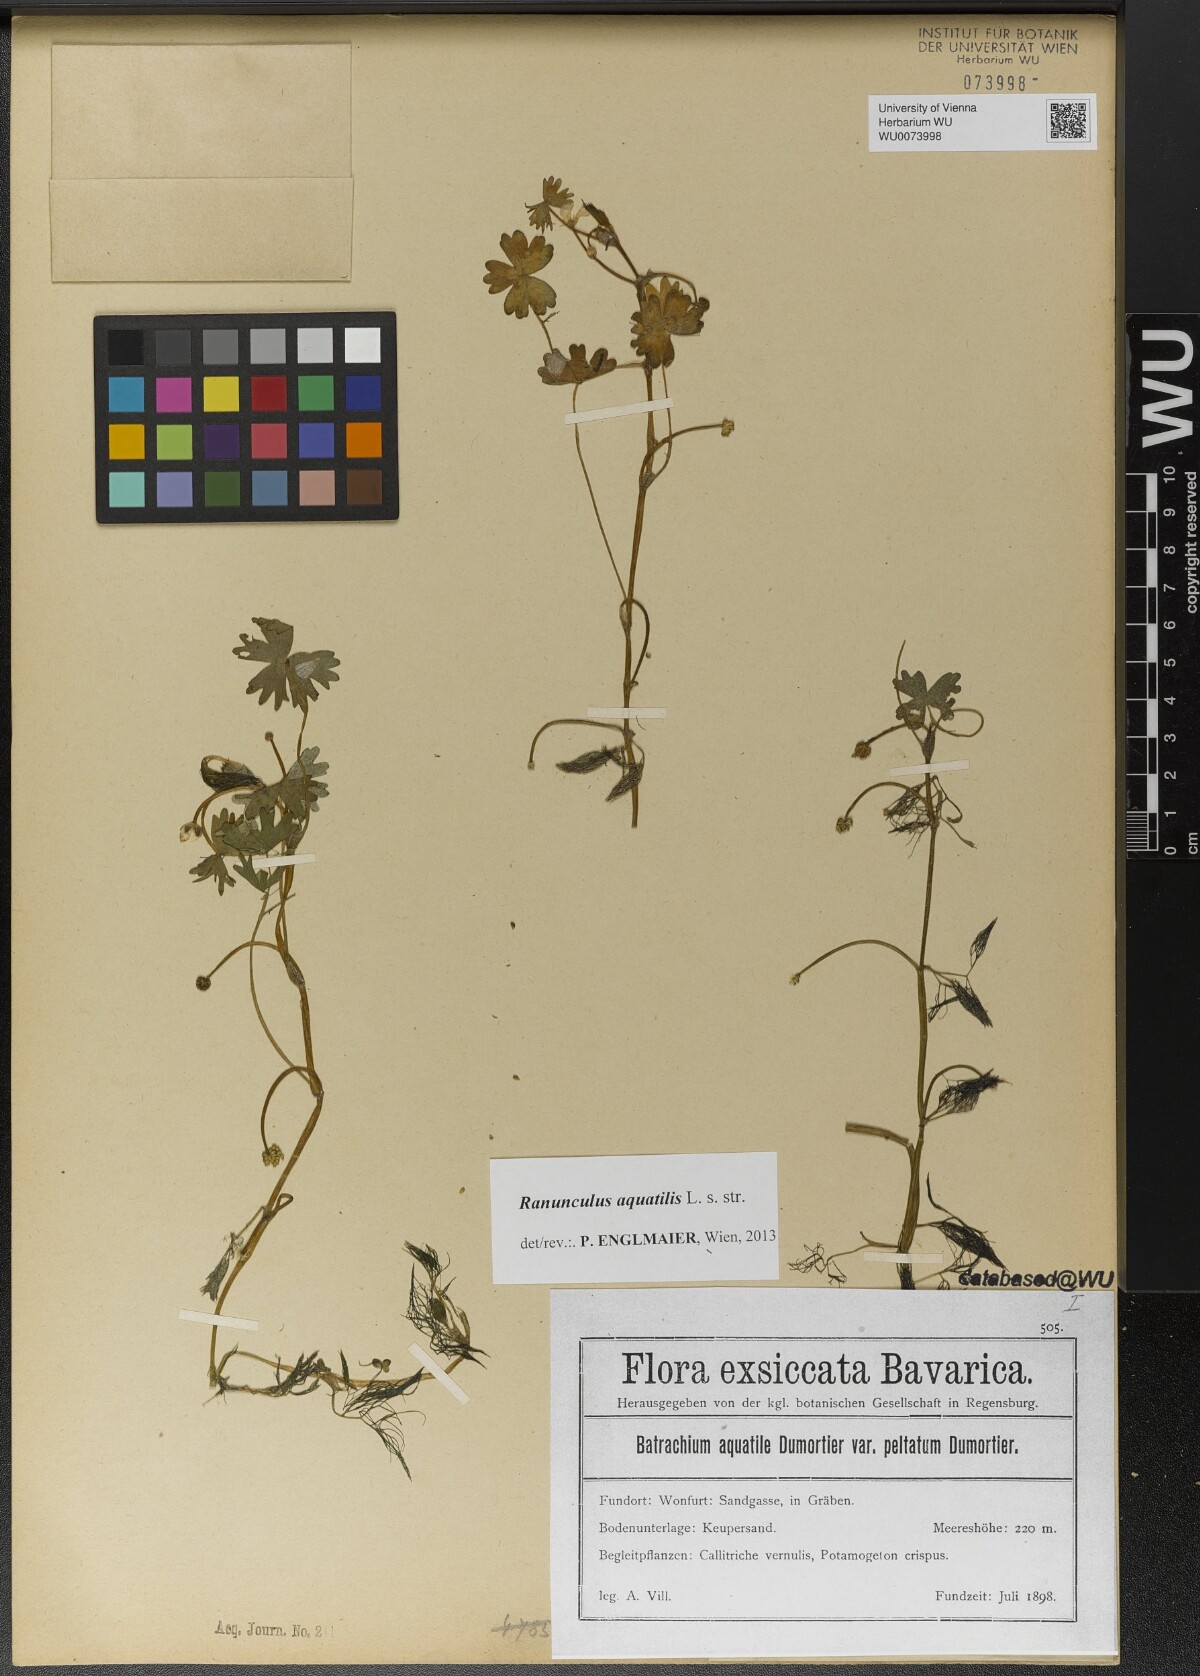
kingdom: Plantae
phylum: Tracheophyta
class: Magnoliopsida
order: Ranunculales
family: Ranunculaceae
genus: Ranunculus
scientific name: Ranunculus aquatilis
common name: Common water-crowfoot
